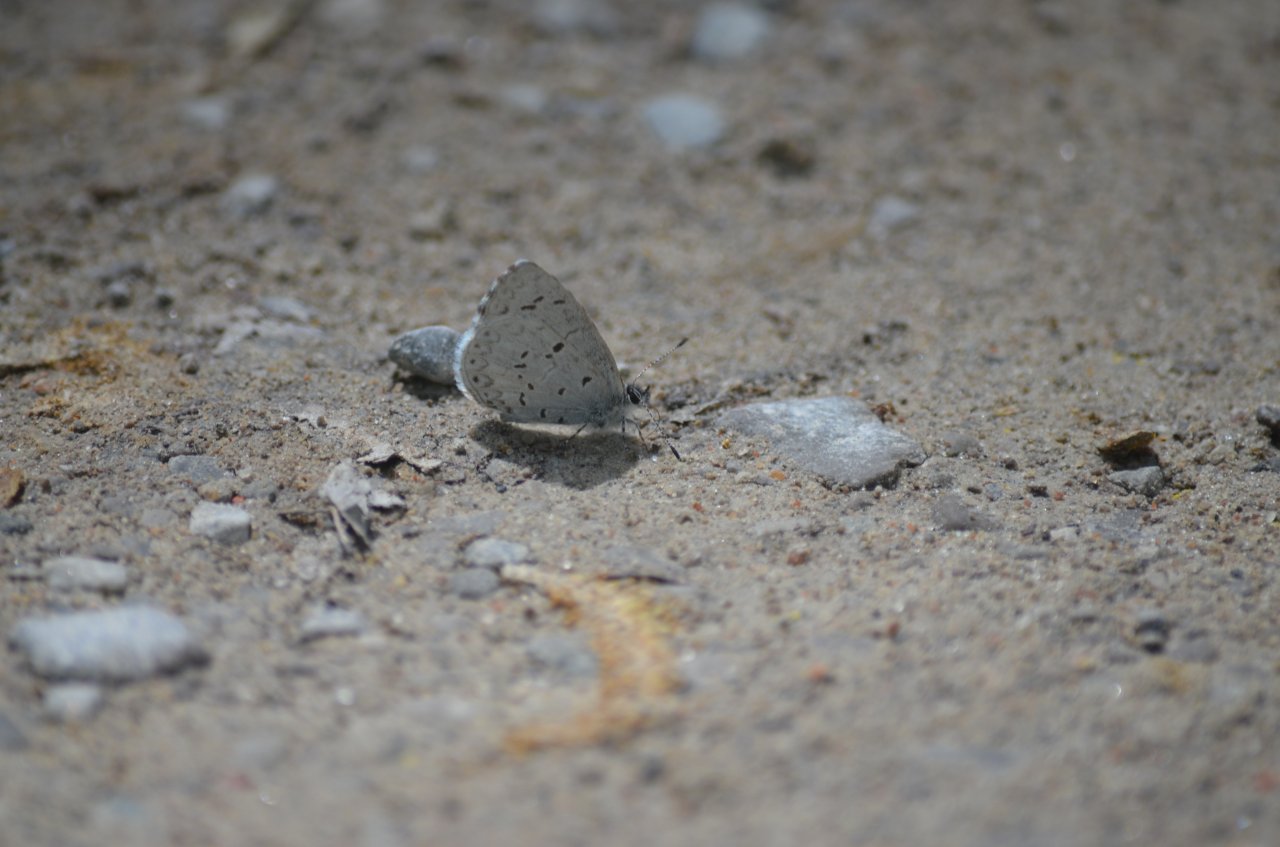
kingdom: Animalia
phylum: Arthropoda
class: Insecta
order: Lepidoptera
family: Lycaenidae
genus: Celastrina
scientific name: Celastrina
